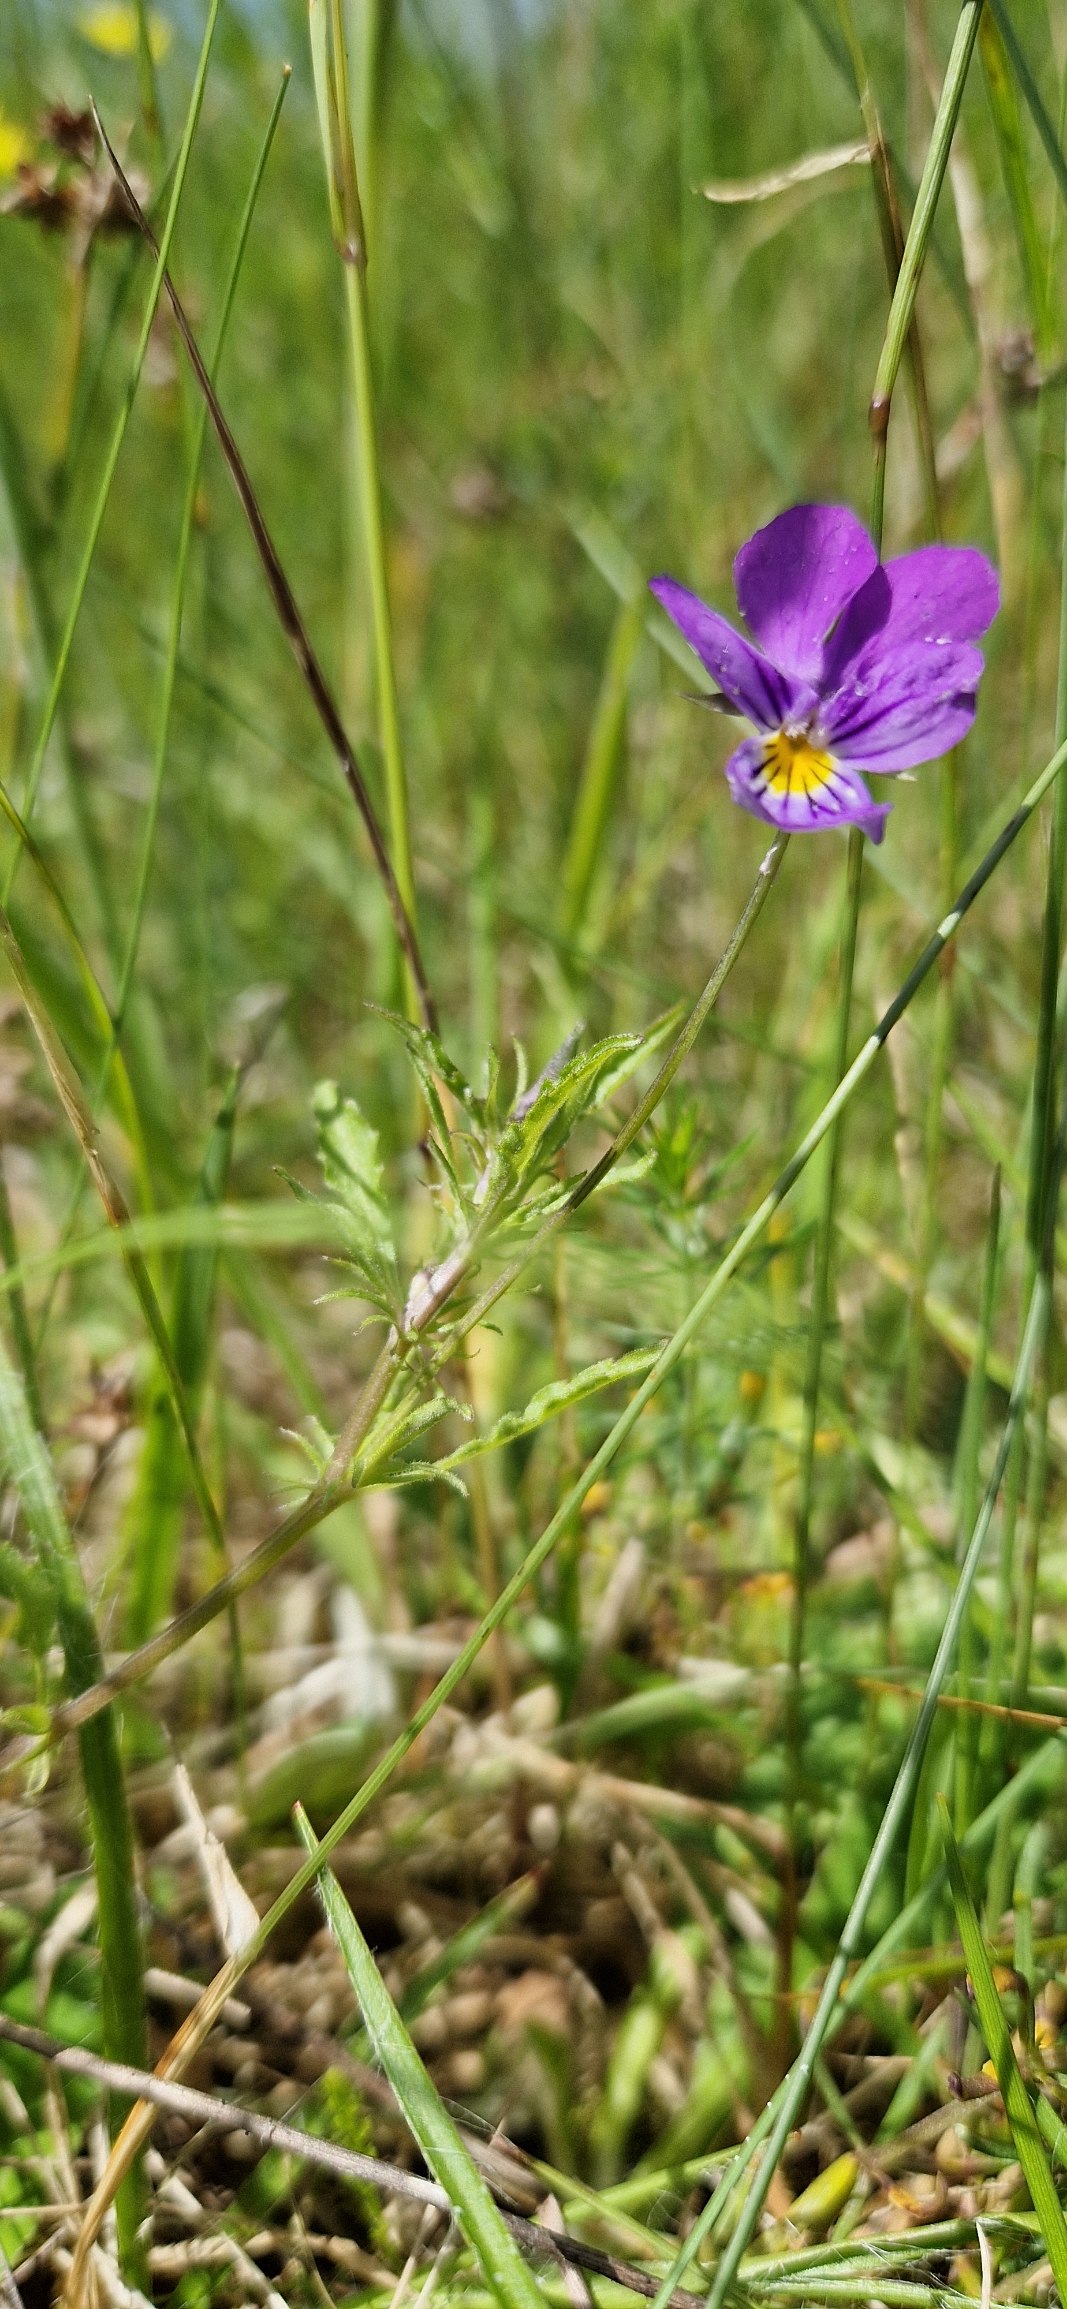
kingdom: Plantae
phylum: Tracheophyta
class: Magnoliopsida
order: Malpighiales
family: Violaceae
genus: Viola
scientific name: Viola tricolor
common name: Stedmoderblomst
